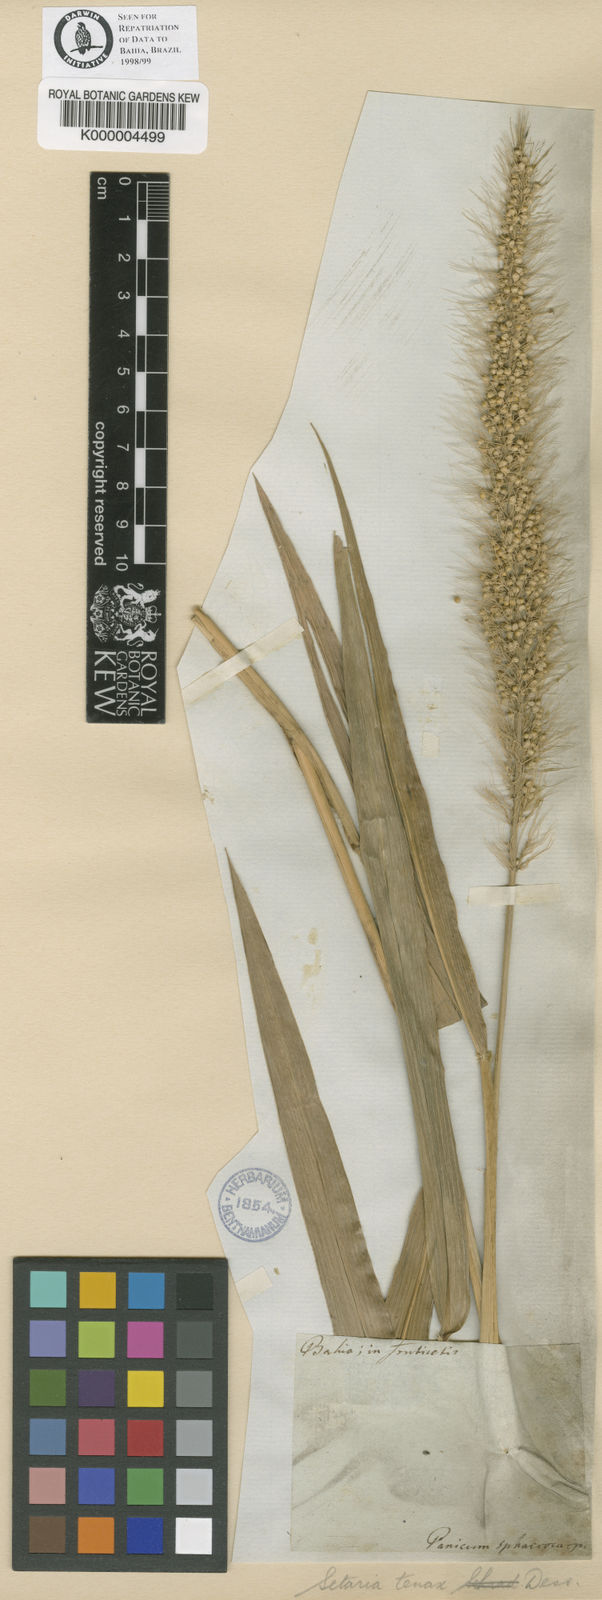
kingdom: Plantae
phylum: Tracheophyta
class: Liliopsida
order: Poales
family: Poaceae
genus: Setaria
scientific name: Setaria tenax
